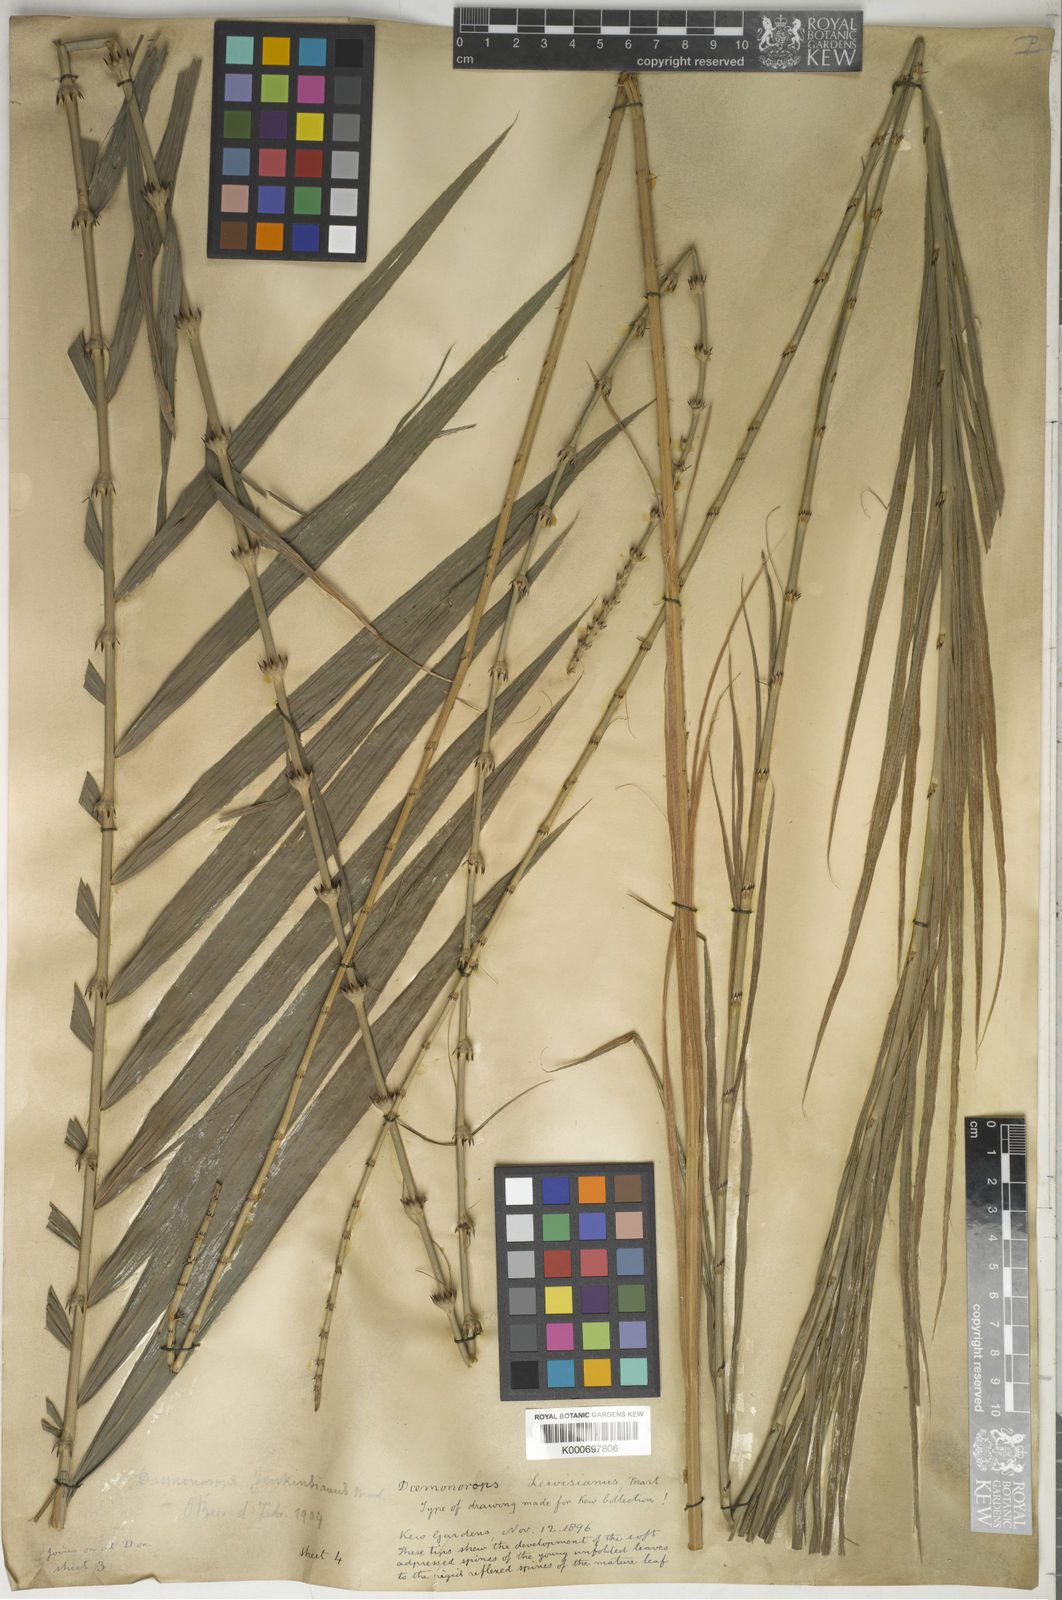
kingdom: Plantae
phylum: Tracheophyta
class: Liliopsida
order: Arecales
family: Arecaceae
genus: Calamus
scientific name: Calamus melanochaetes
